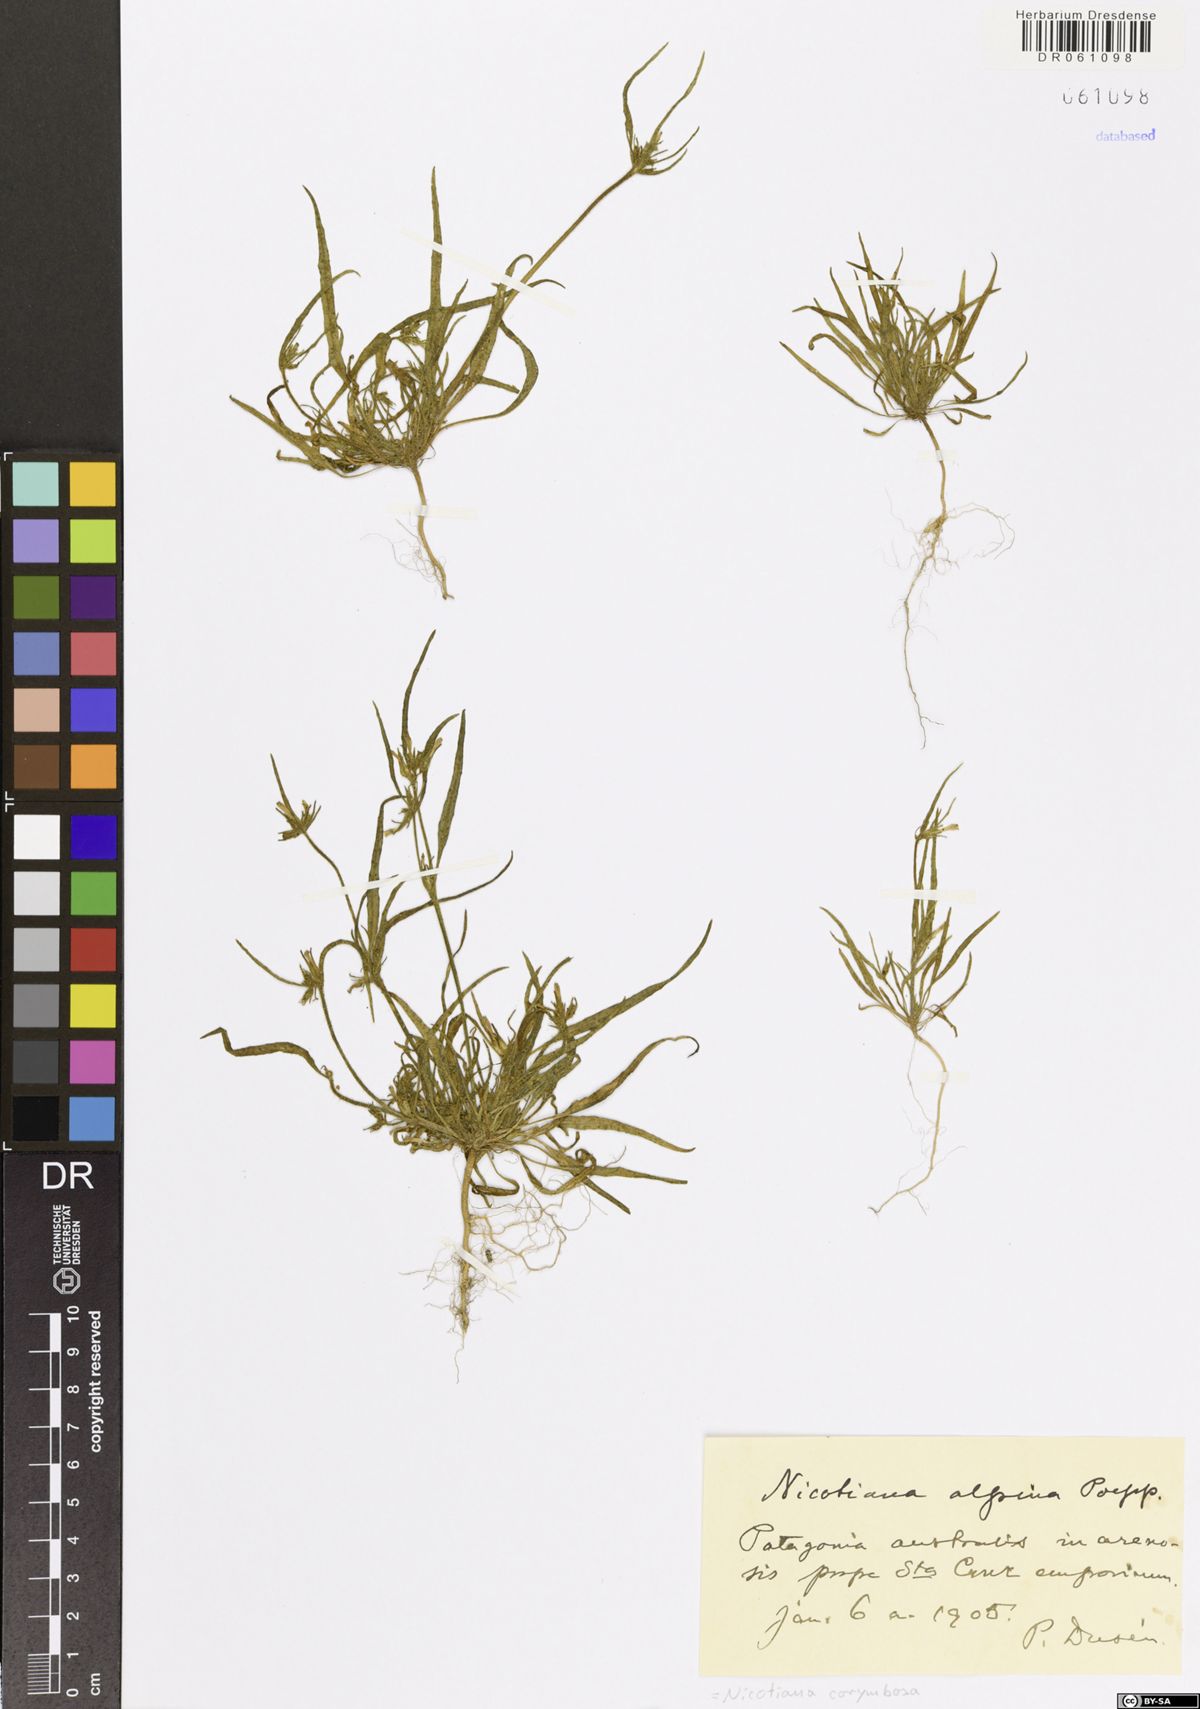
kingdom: Plantae
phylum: Tracheophyta
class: Magnoliopsida
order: Solanales
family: Solanaceae
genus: Nicotiana
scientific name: Nicotiana corymbosa
